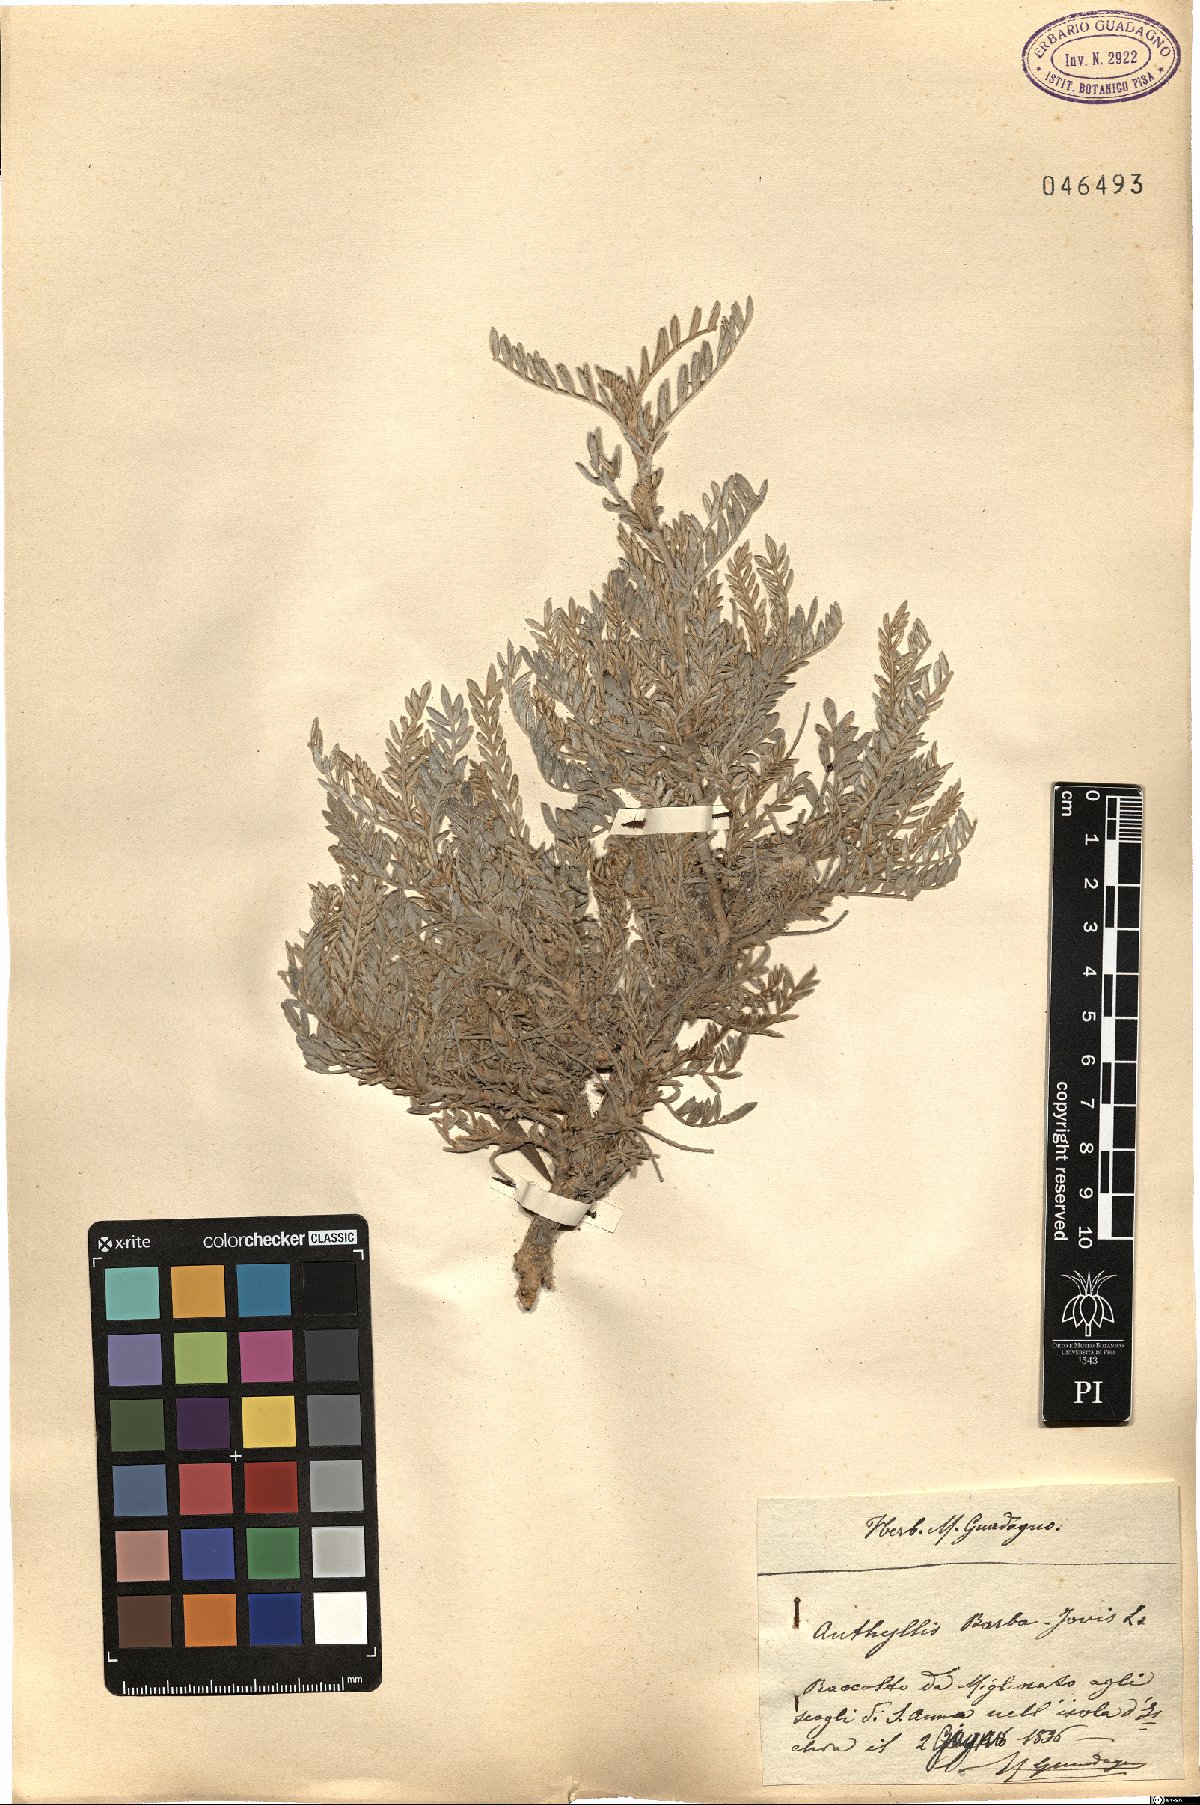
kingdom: Plantae
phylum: Tracheophyta
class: Magnoliopsida
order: Fabales
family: Fabaceae
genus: Anthyllis
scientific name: Anthyllis barba-jovis
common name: Jupiter's-beard
